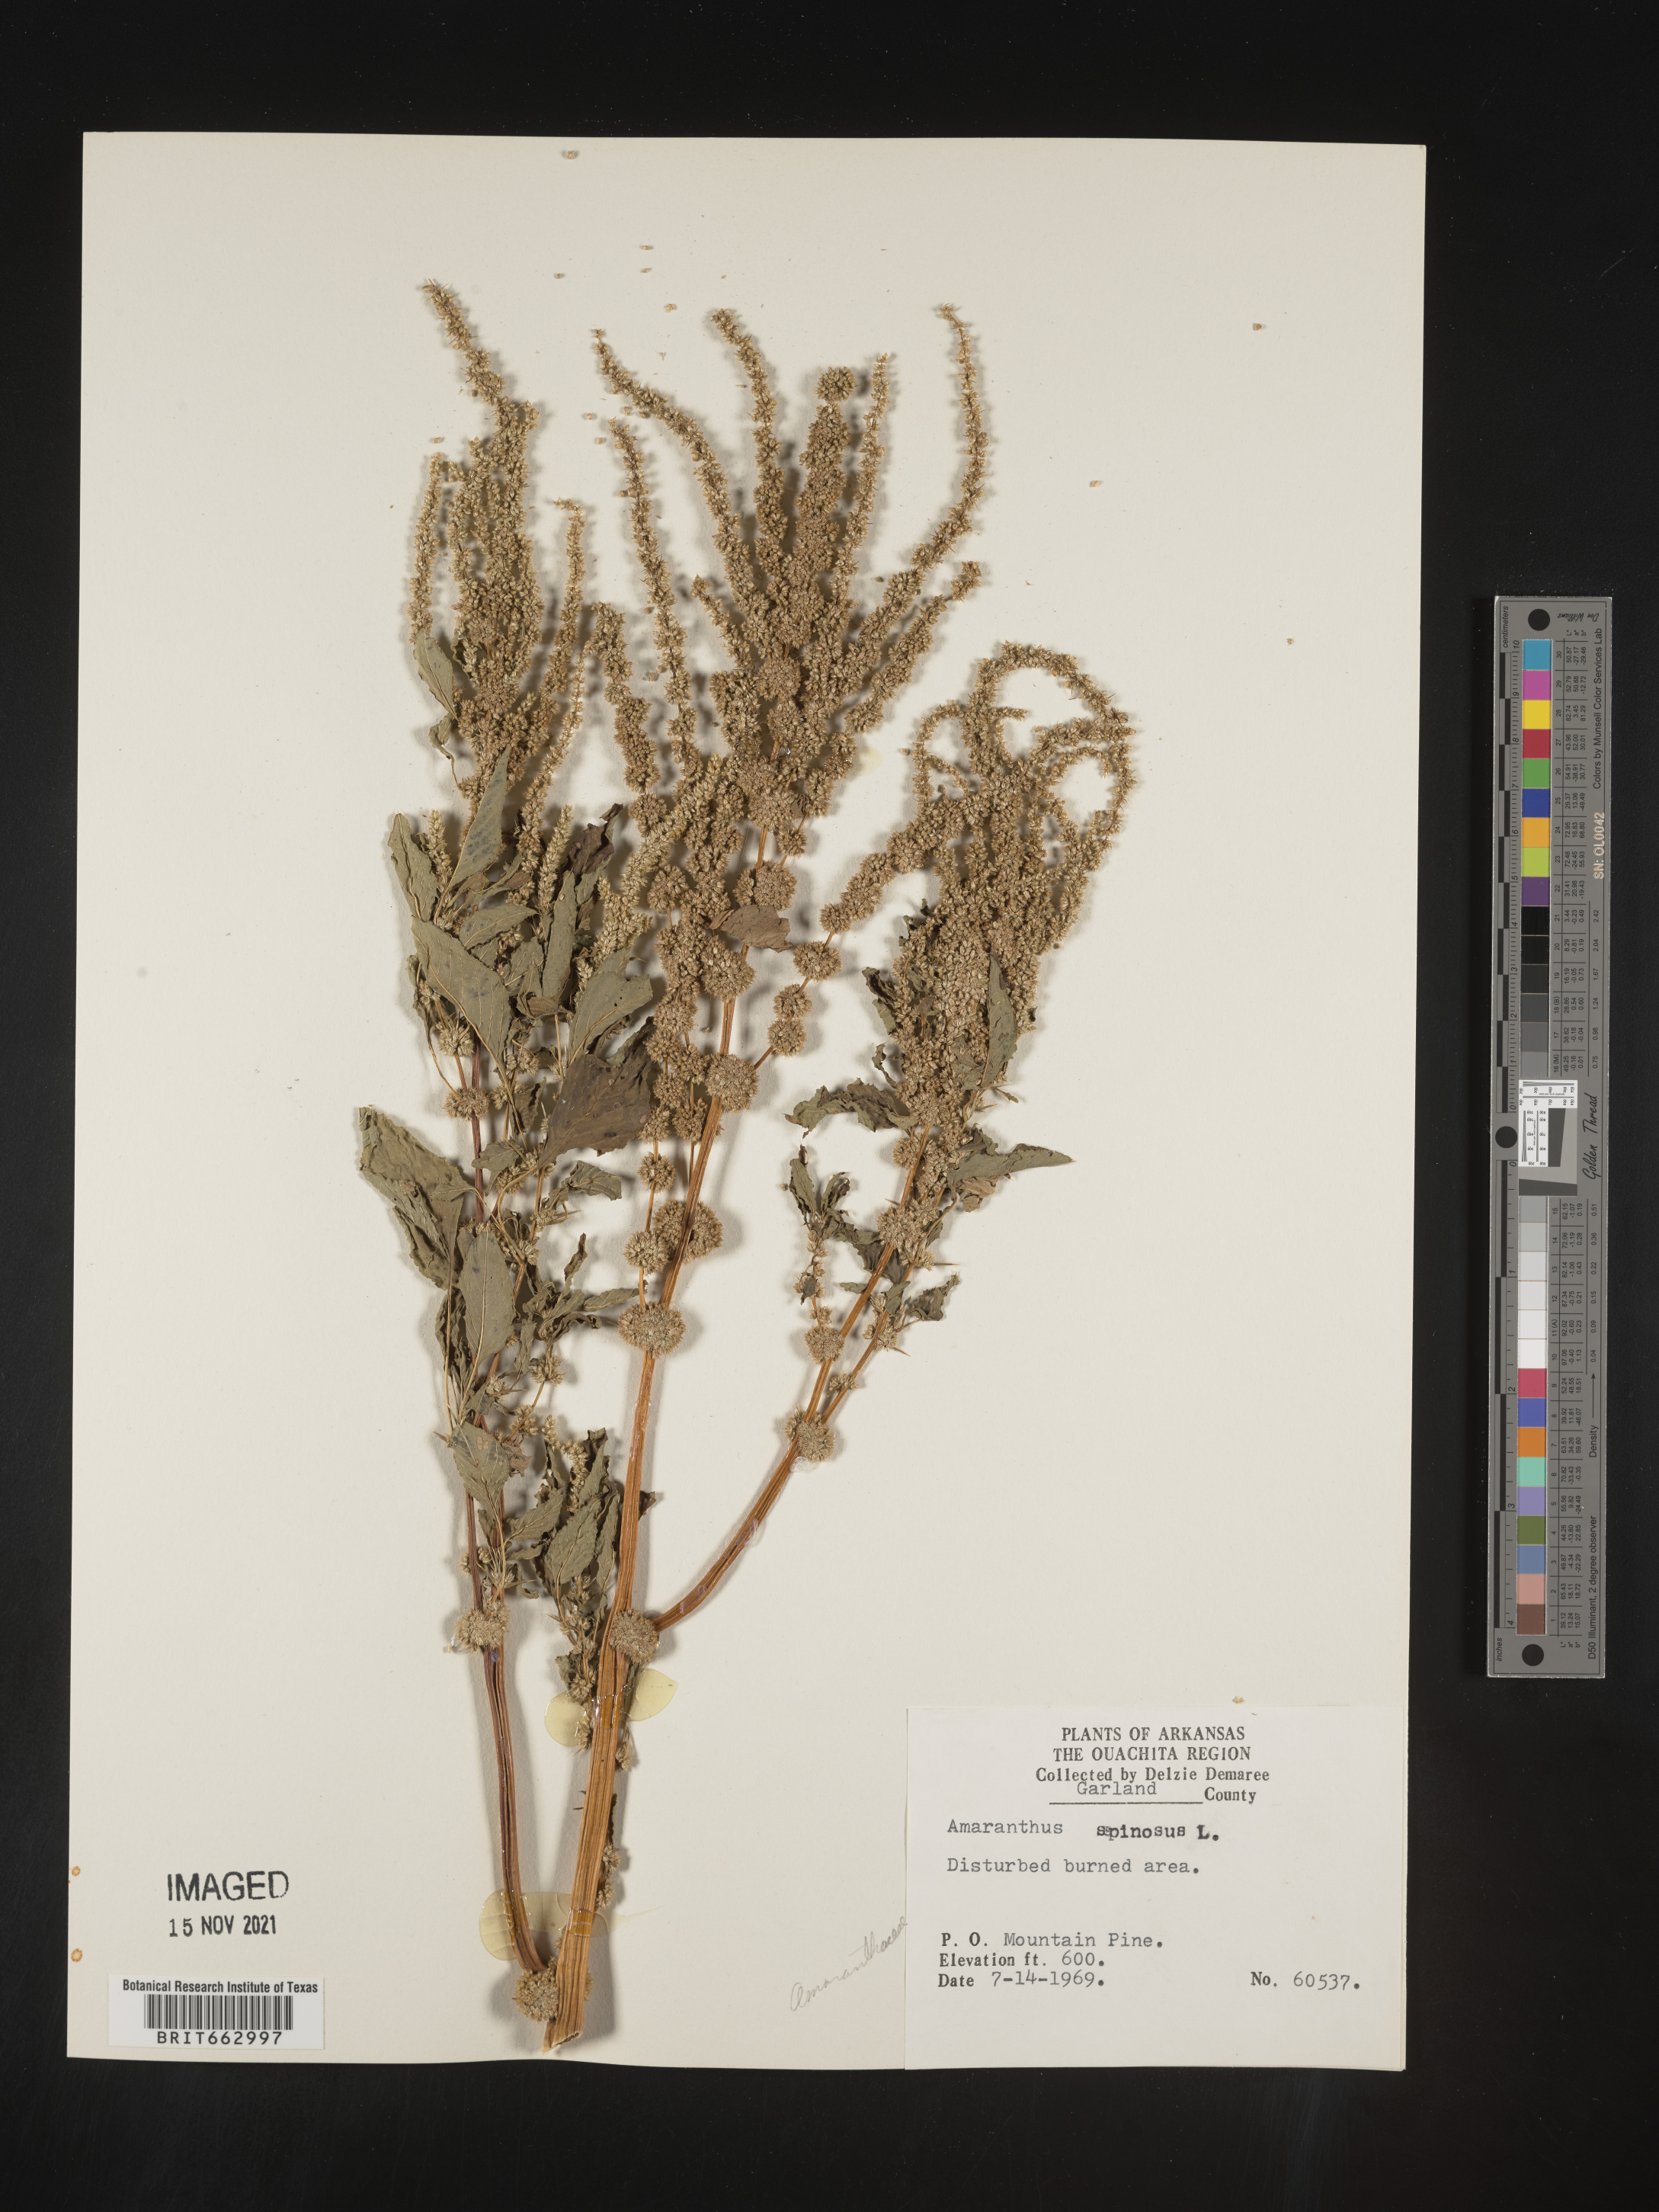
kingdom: Plantae
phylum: Tracheophyta
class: Magnoliopsida
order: Caryophyllales
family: Amaranthaceae
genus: Amaranthus
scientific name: Amaranthus spinosus
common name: Spiny amaranth
